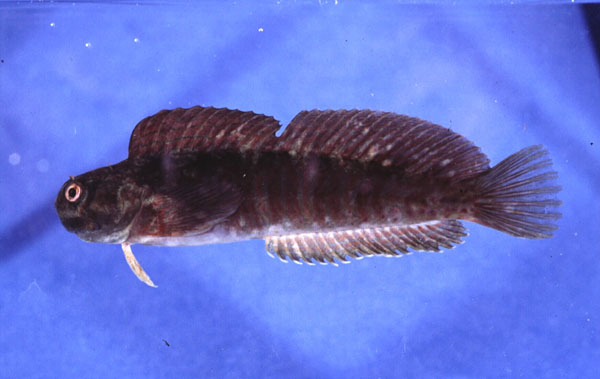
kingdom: Animalia
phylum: Chordata
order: Perciformes
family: Blenniidae
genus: Istiblennius
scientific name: Istiblennius edentulus
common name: Rippled rockskipper
